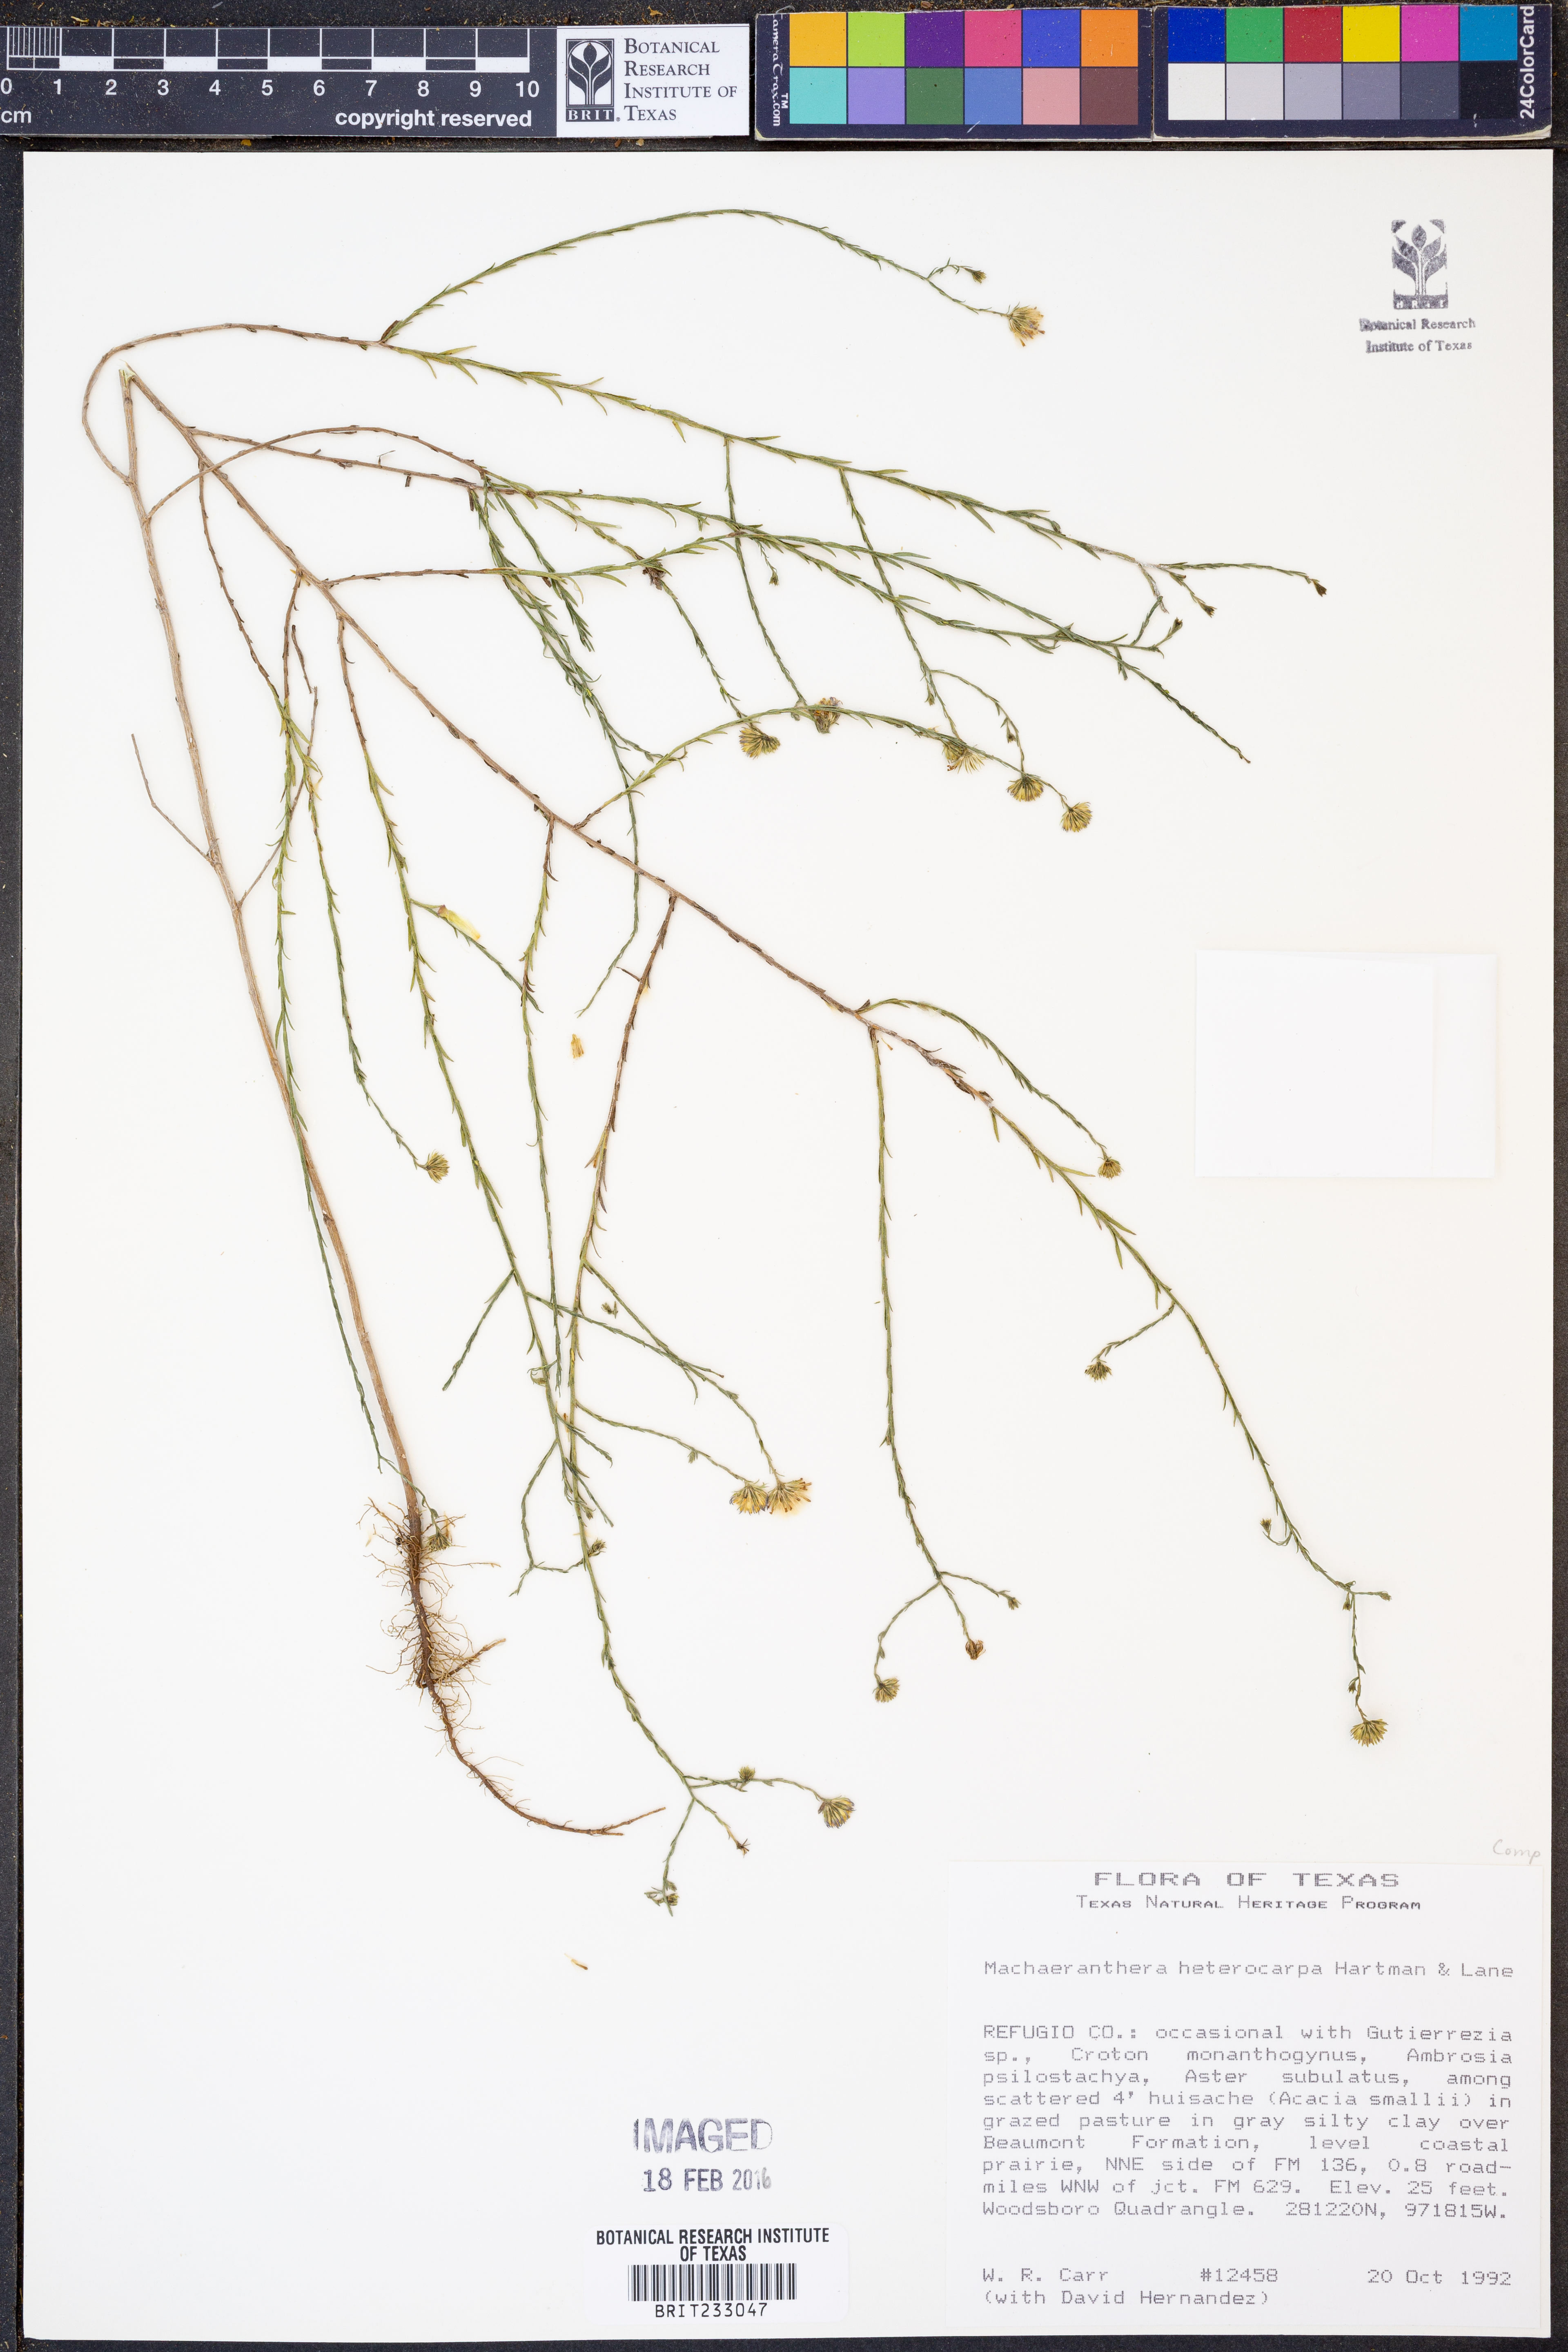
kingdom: Plantae
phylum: Tracheophyta
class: Magnoliopsida
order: Asterales
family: Asteraceae
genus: Psilactis
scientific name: Psilactis heterocarpa
